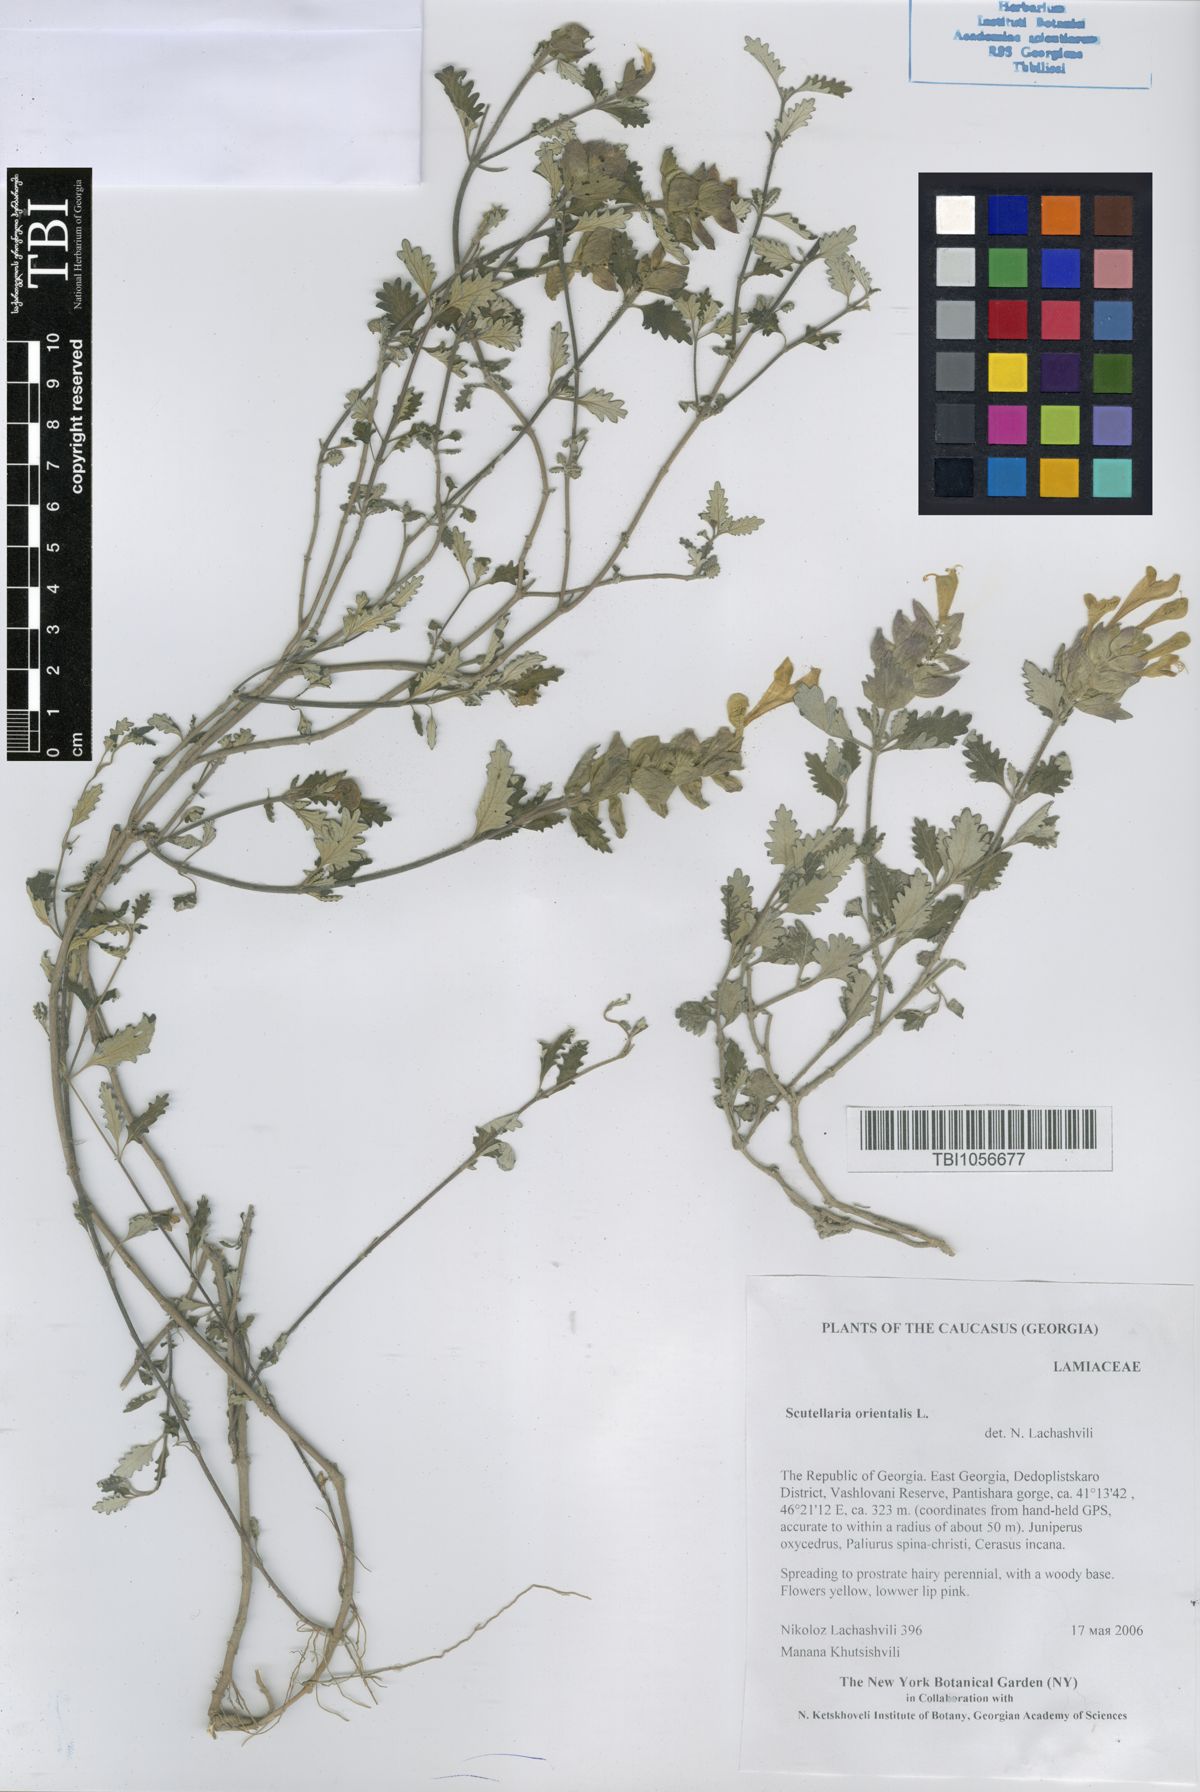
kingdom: Plantae
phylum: Tracheophyta
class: Magnoliopsida
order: Lamiales
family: Lamiaceae
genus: Scutellaria
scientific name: Scutellaria orientalis
